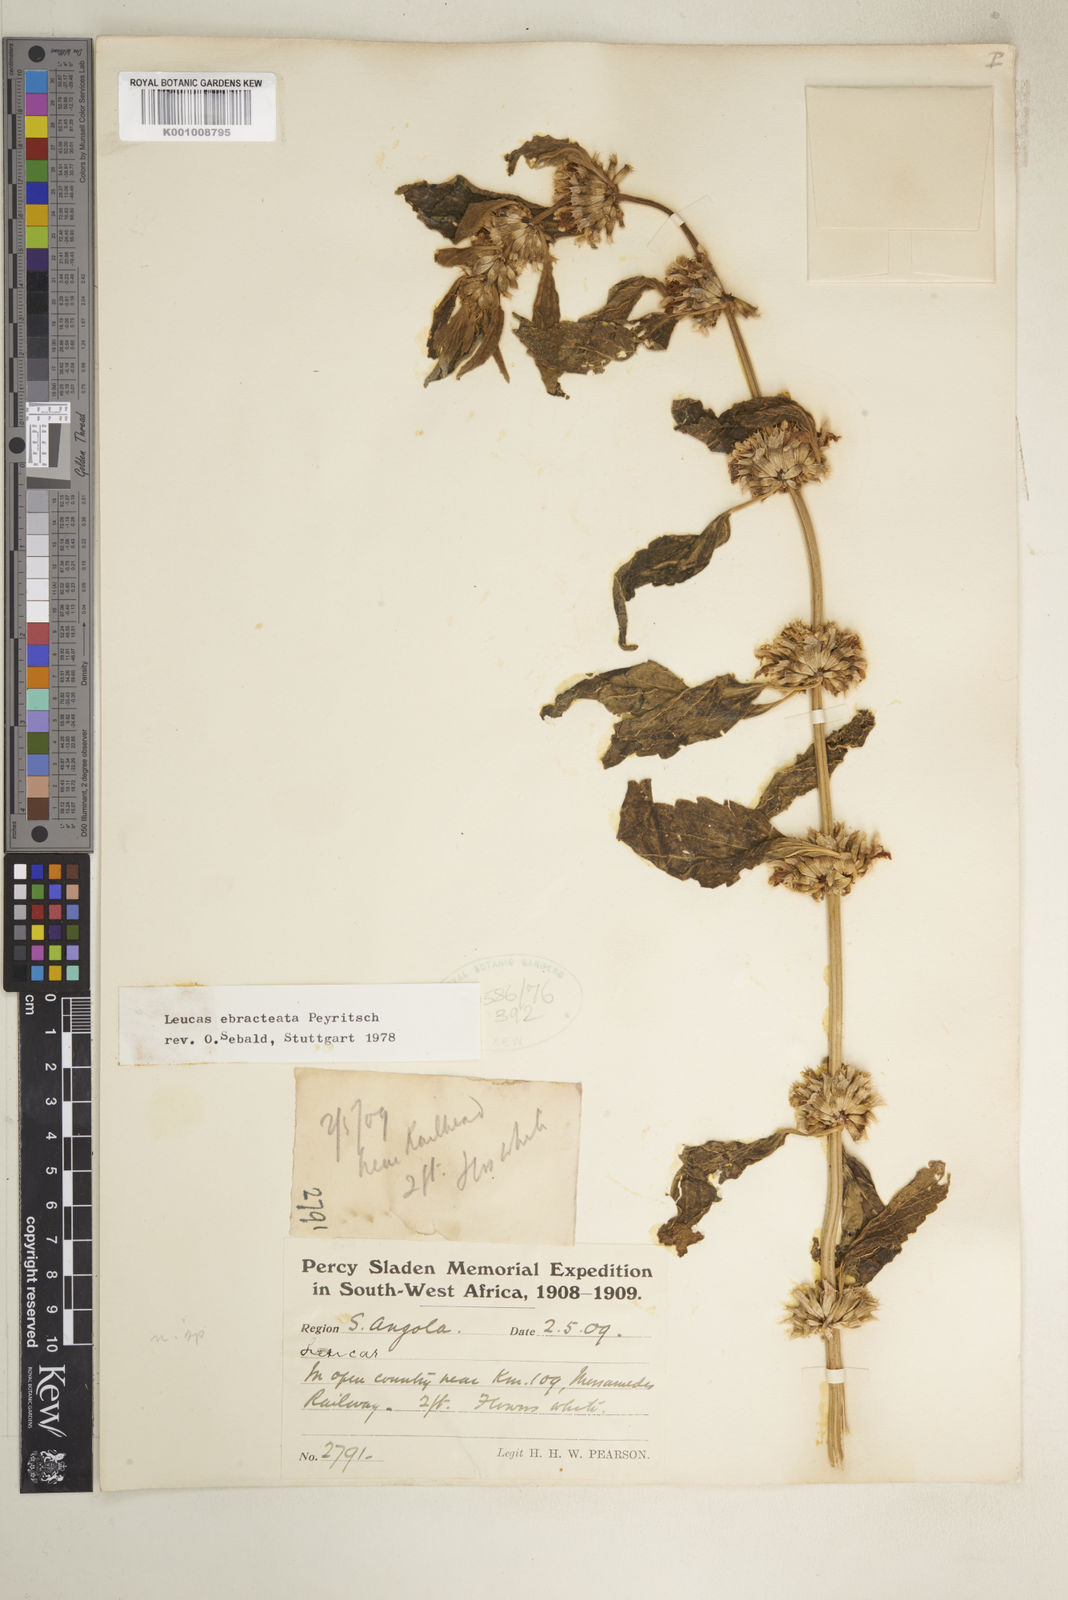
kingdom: Plantae
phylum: Tracheophyta
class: Magnoliopsida
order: Lamiales
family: Lamiaceae
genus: Leucas
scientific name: Leucas ebracteata
